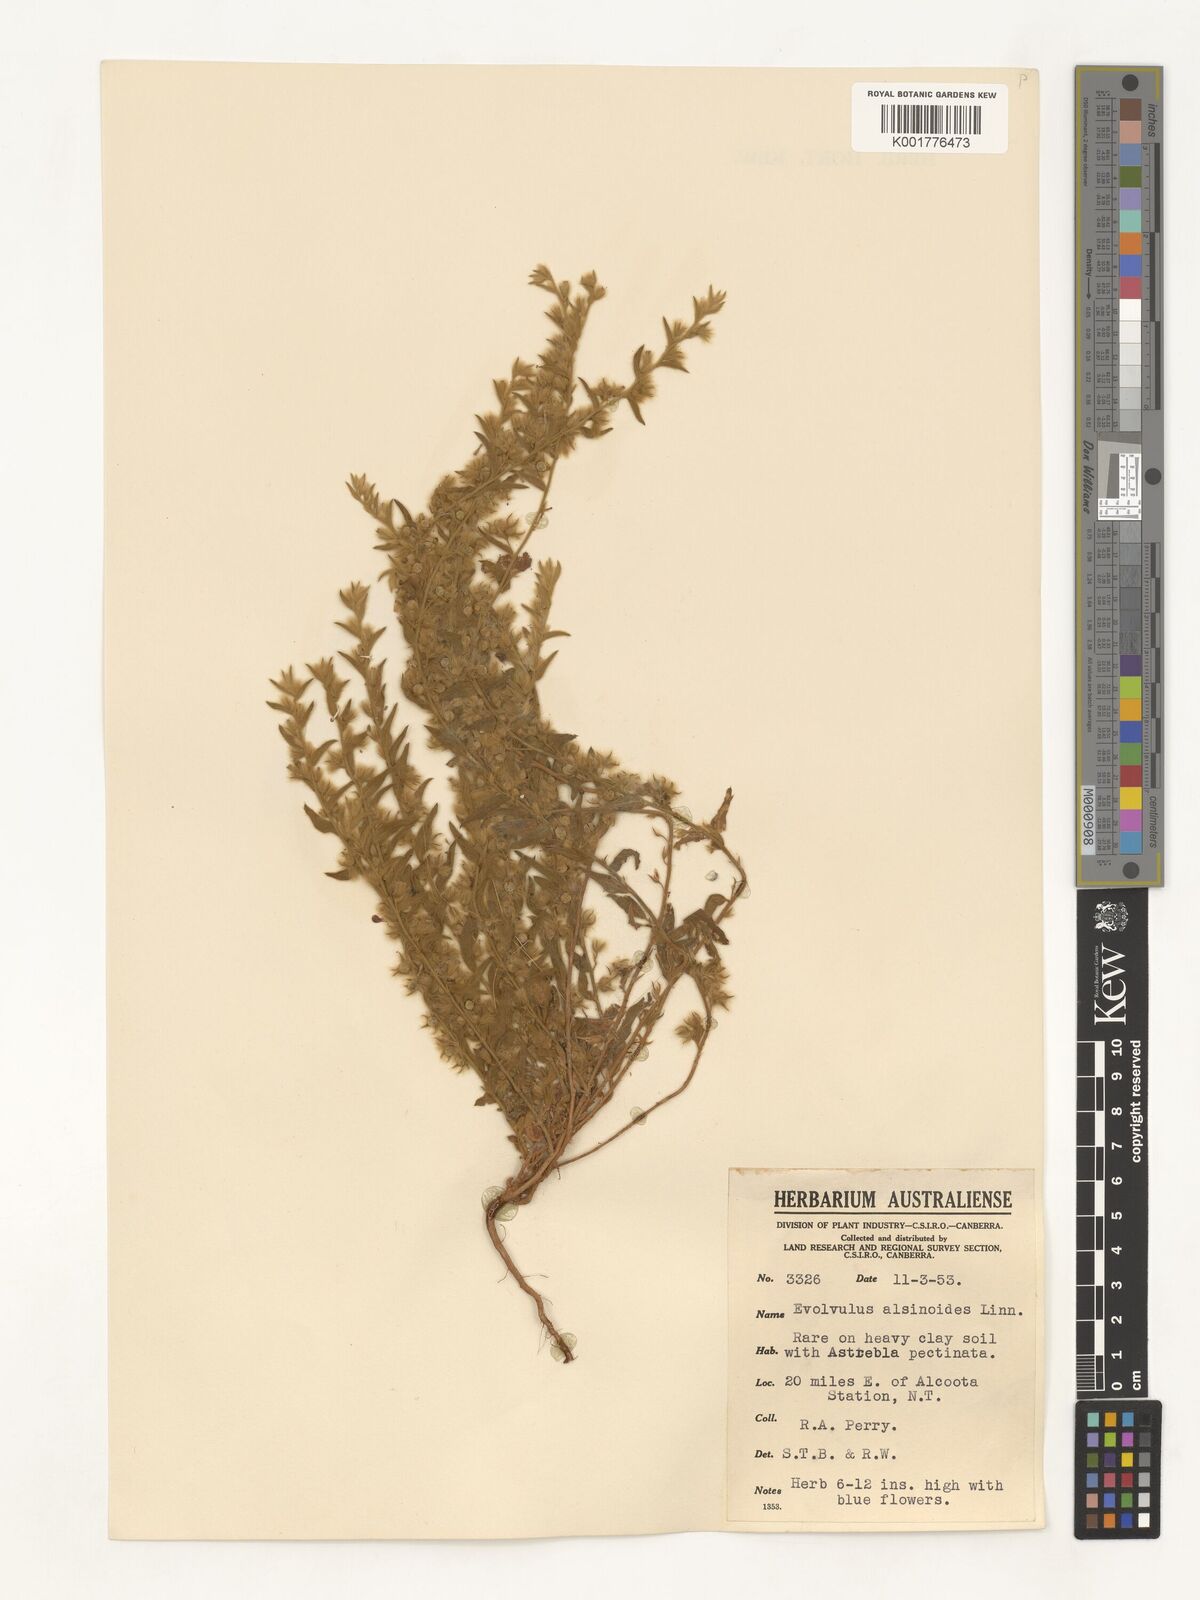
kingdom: Plantae
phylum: Tracheophyta
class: Magnoliopsida
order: Solanales
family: Convolvulaceae
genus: Evolvulus
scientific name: Evolvulus alsinoides
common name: Slender dwarf morning-glory
